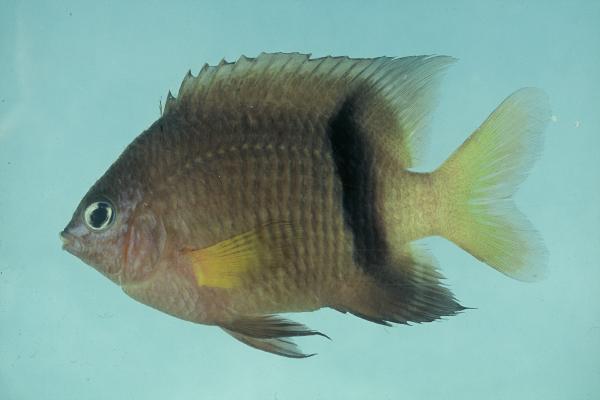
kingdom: Animalia
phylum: Chordata
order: Perciformes
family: Pomacentridae
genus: Plectroglyphidodon
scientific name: Plectroglyphidodon dickii
